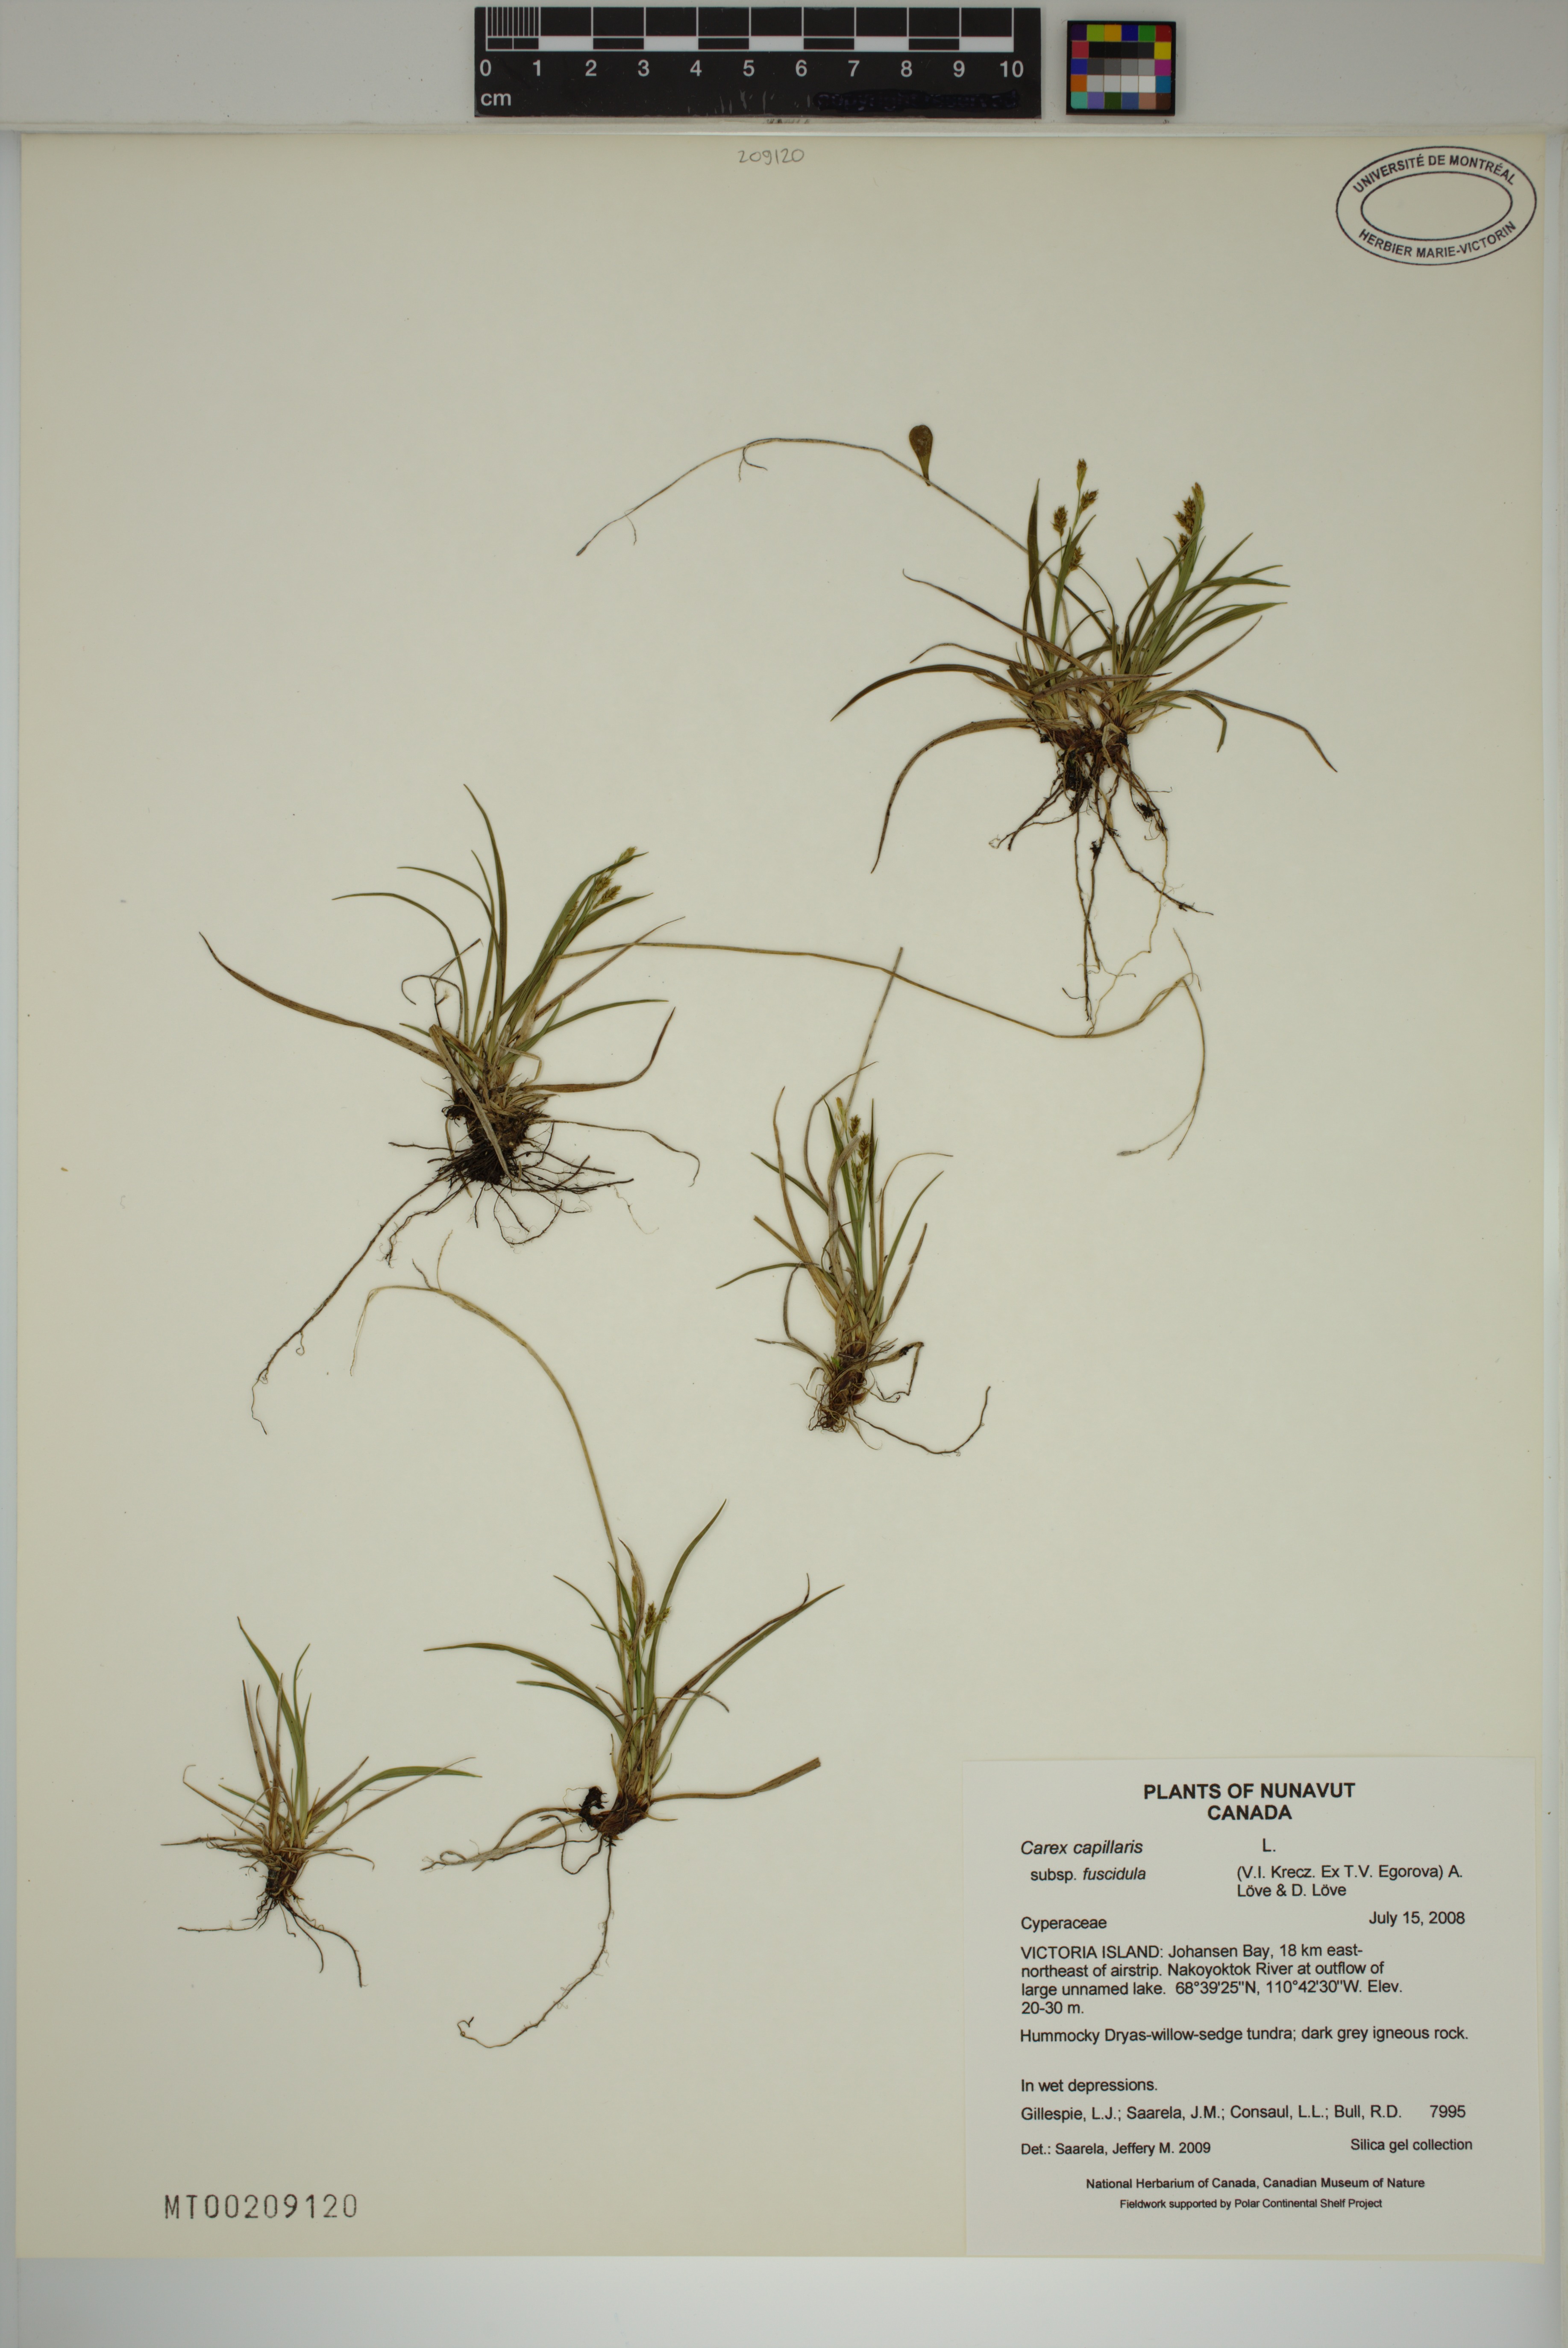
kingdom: Plantae
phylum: Tracheophyta
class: Liliopsida
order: Poales
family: Cyperaceae
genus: Carex
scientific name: Carex capillaris
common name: Hair sedge
